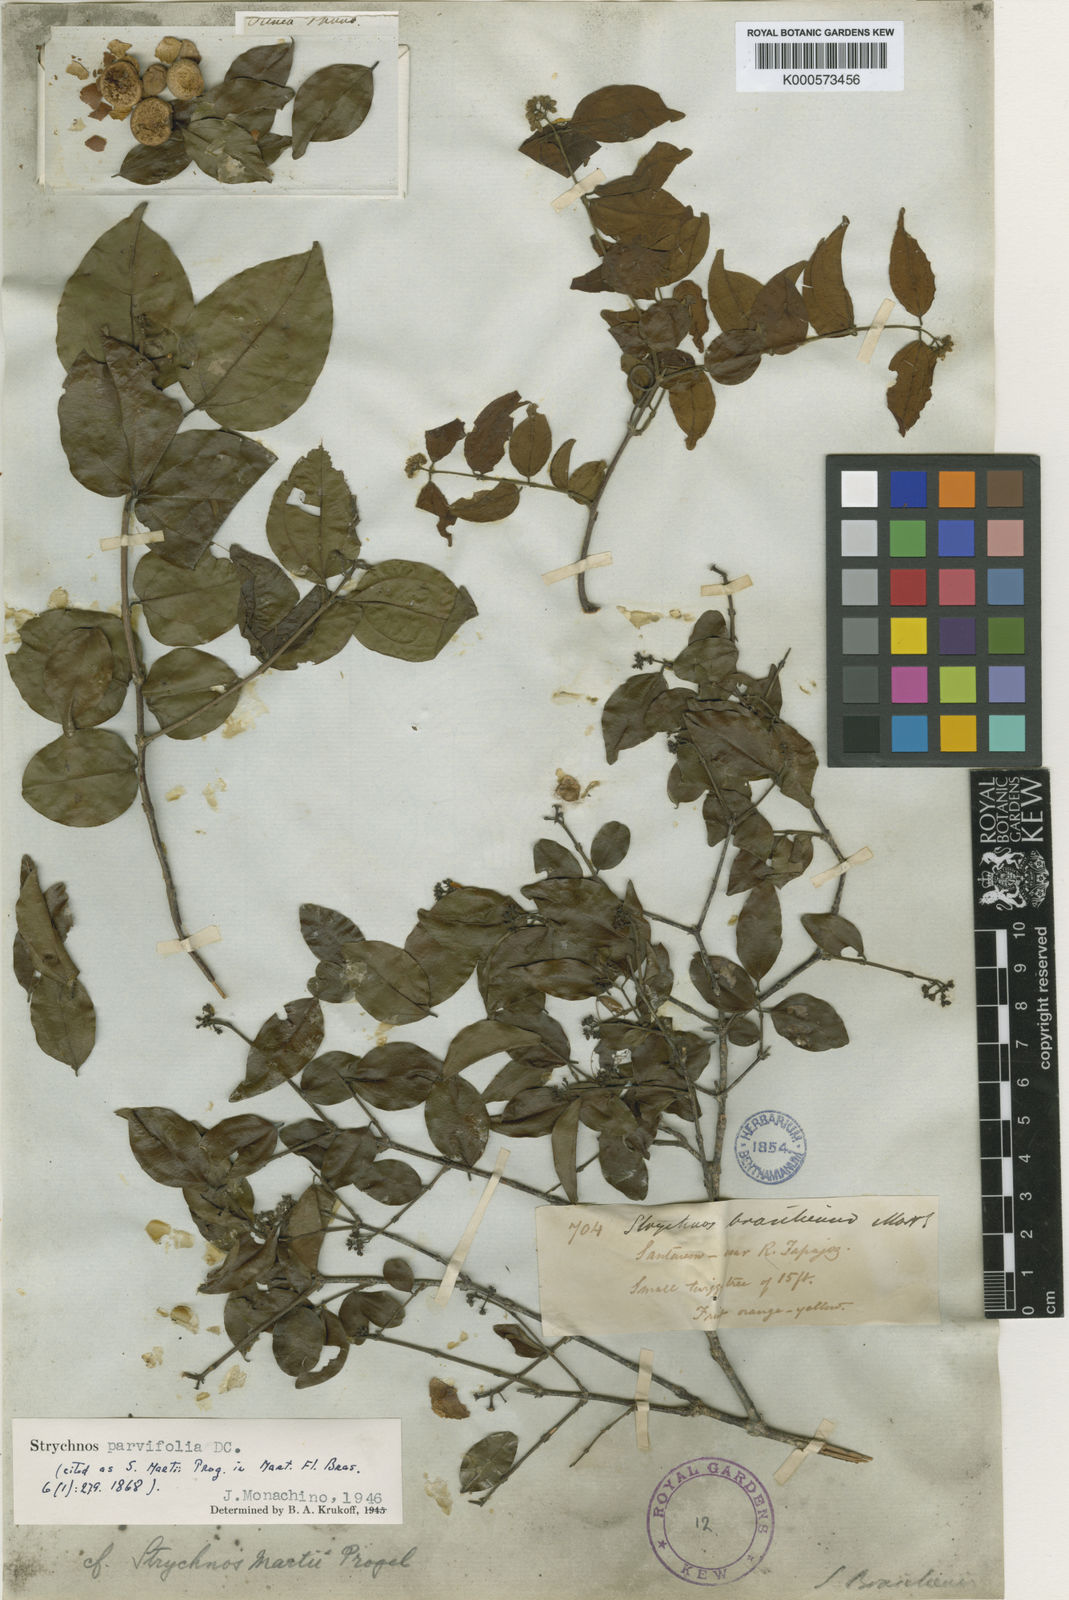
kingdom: Plantae
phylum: Tracheophyta
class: Magnoliopsida
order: Gentianales
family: Loganiaceae
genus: Strychnos
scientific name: Strychnos parvifolia
